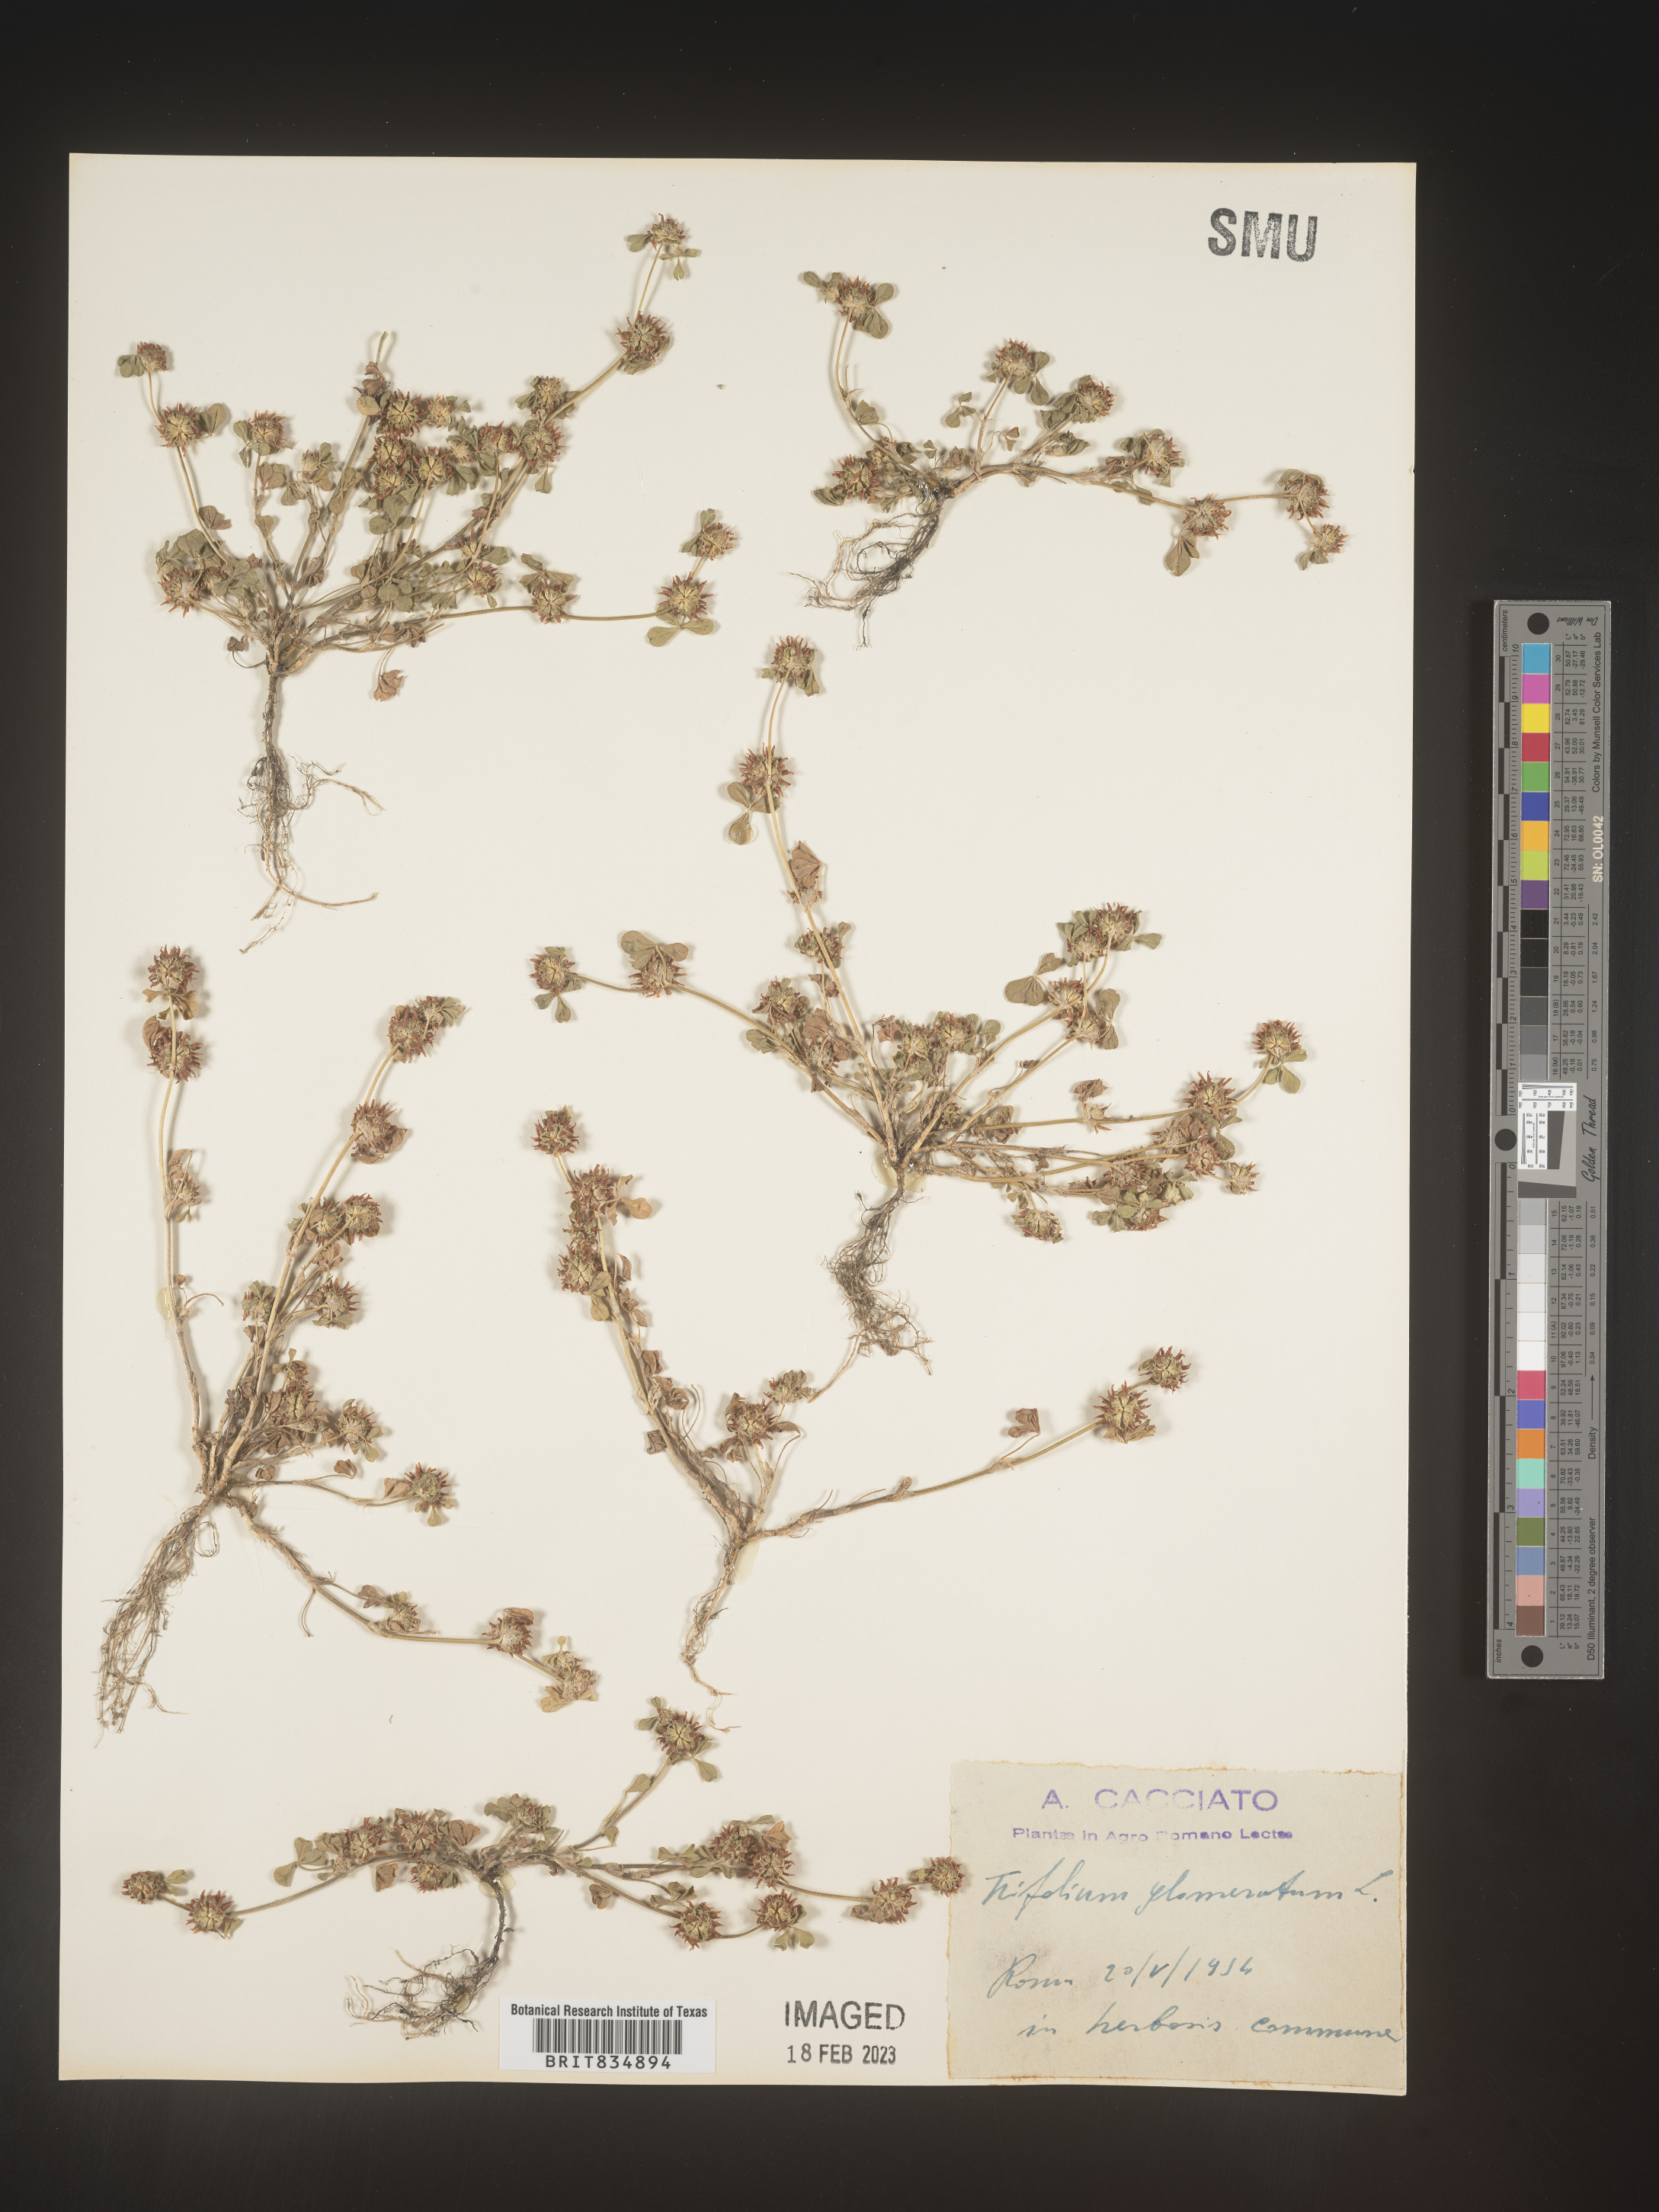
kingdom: Plantae
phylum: Tracheophyta
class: Magnoliopsida
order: Fabales
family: Fabaceae
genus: Trifolium
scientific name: Trifolium
